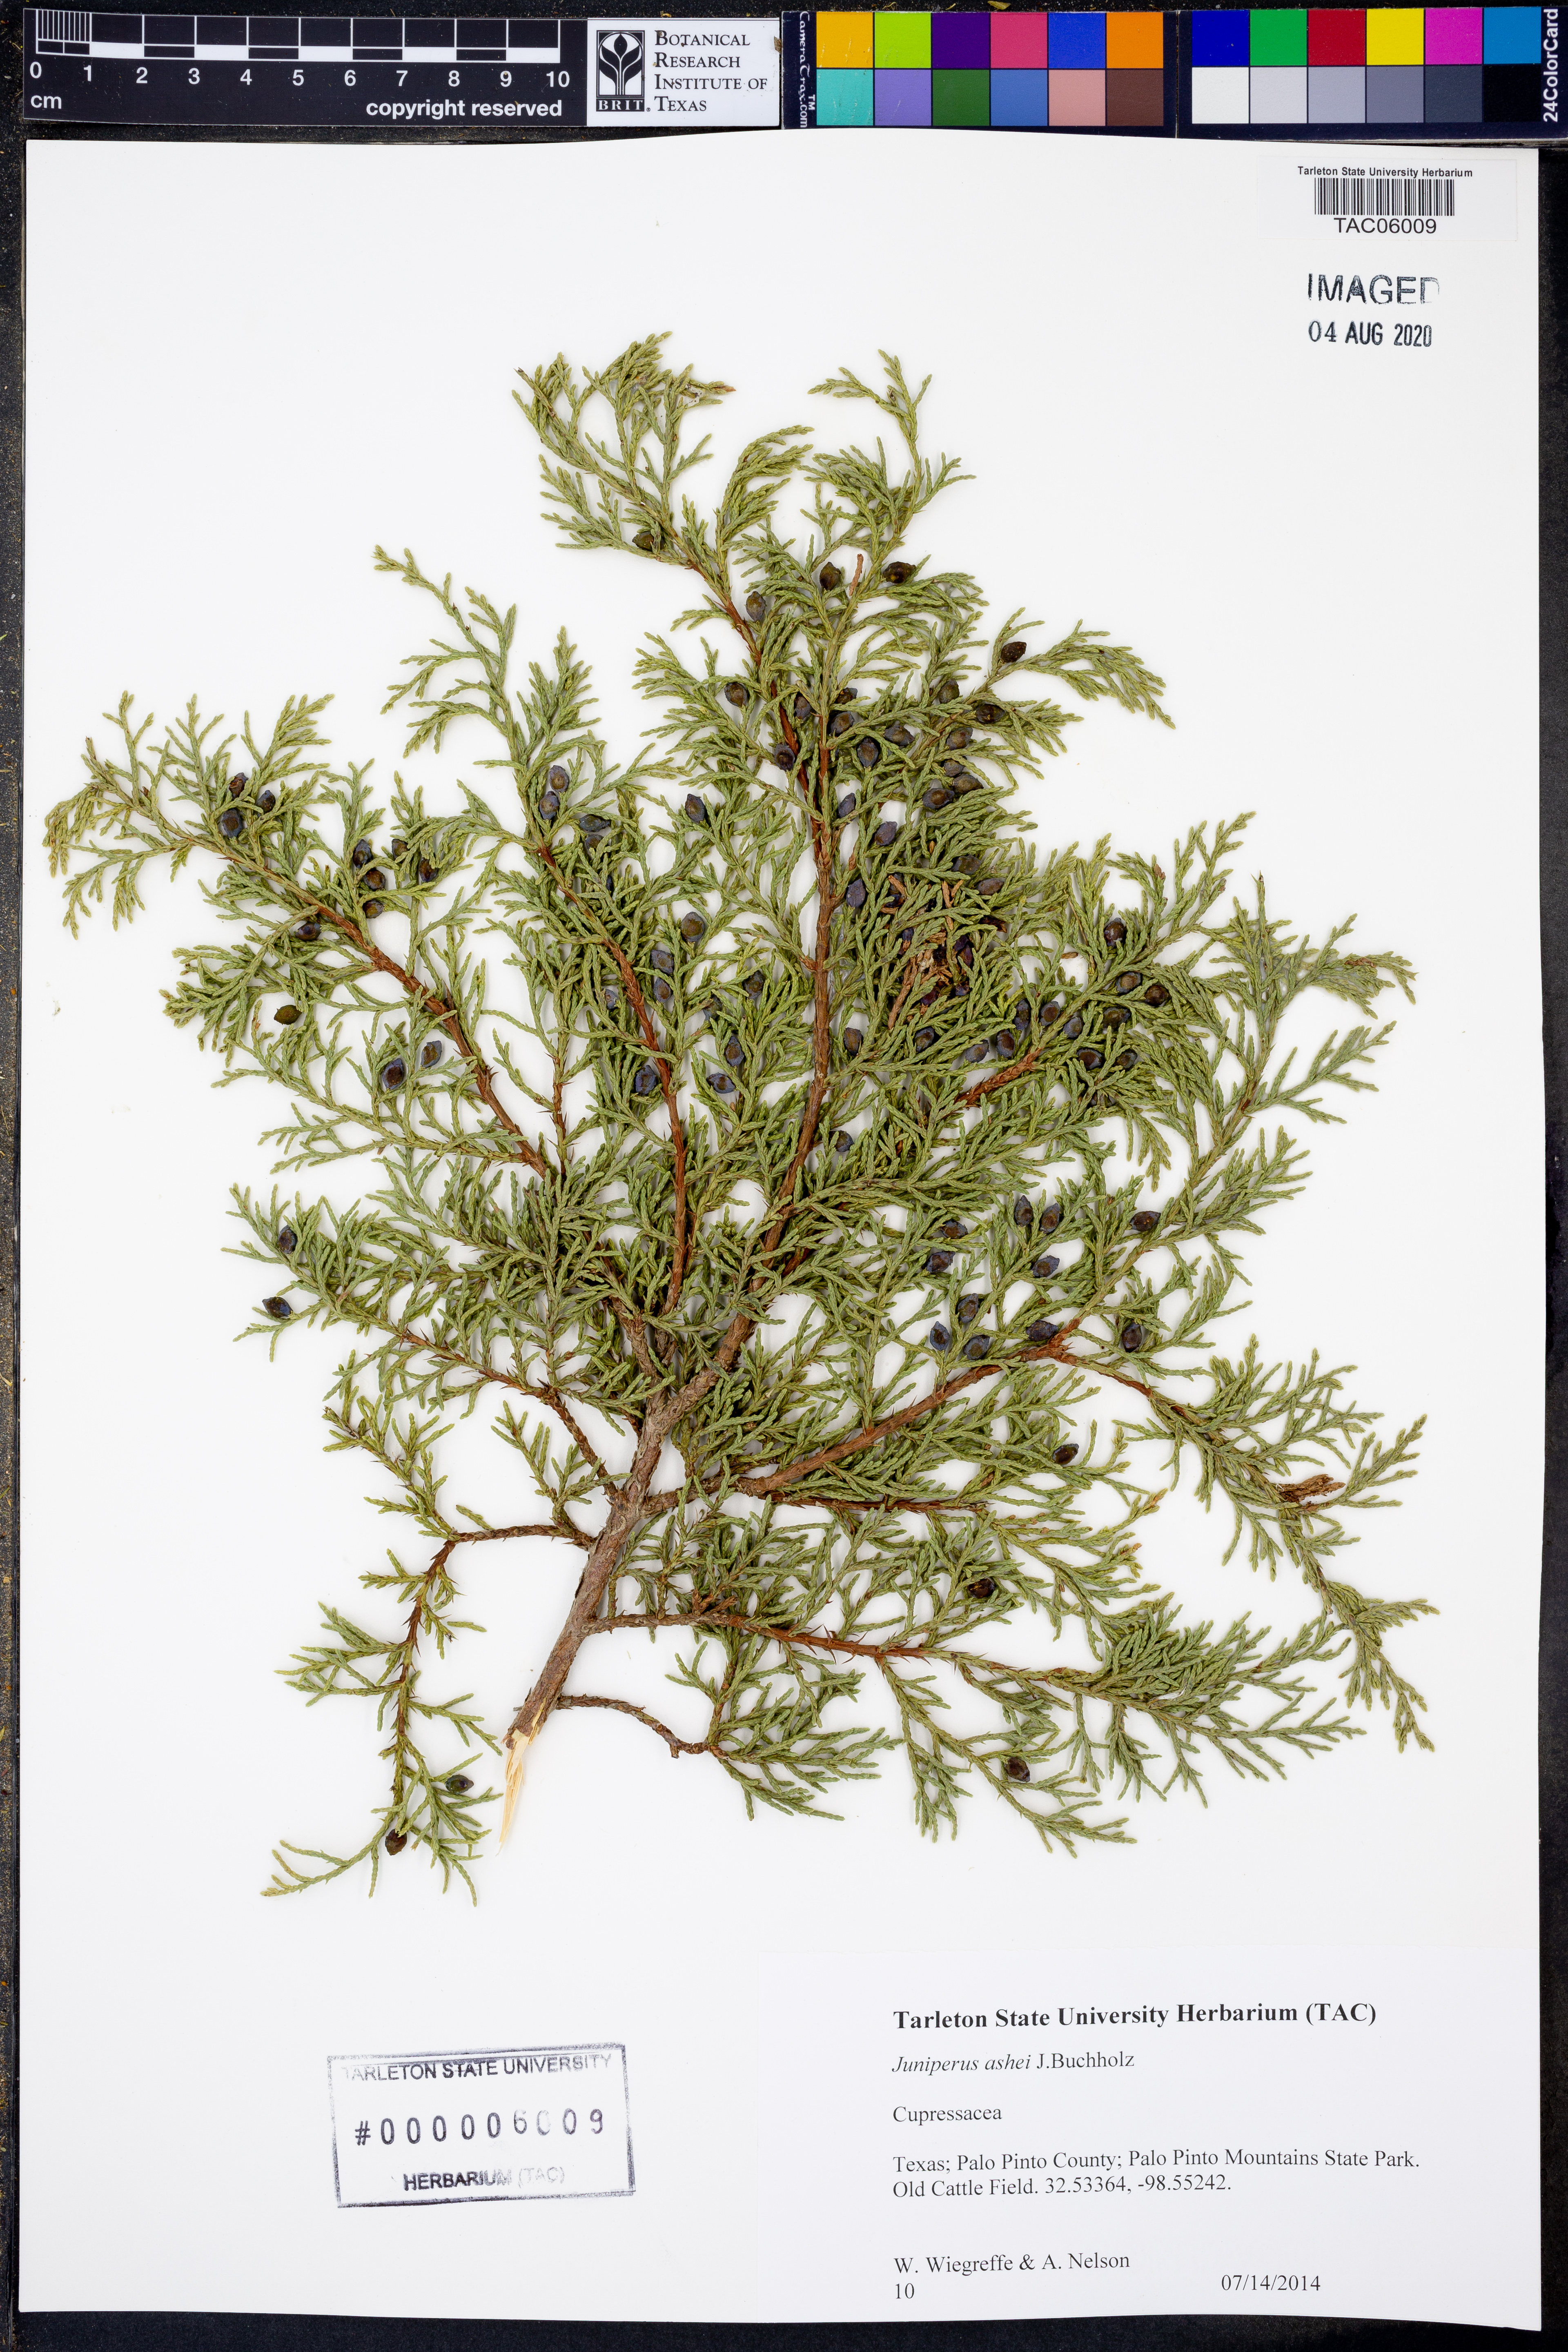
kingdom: Plantae
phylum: Tracheophyta
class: Pinopsida
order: Pinales
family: Cupressaceae
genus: Juniperus
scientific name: Juniperus ashei
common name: Mexican juniper
